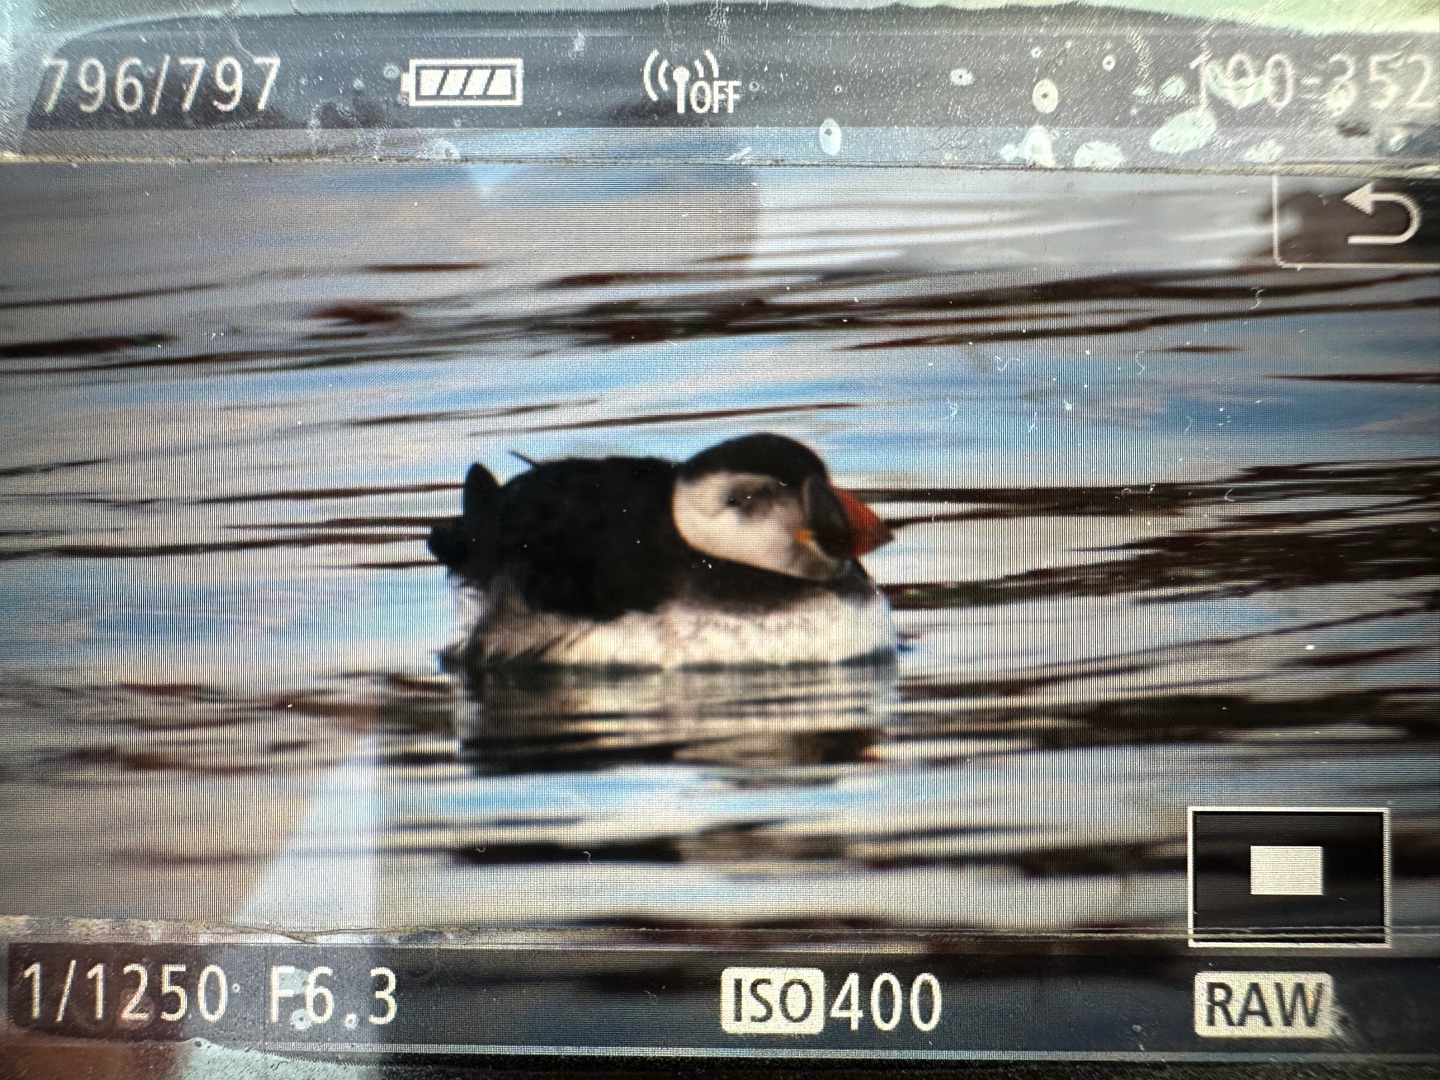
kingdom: Animalia
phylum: Chordata
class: Aves
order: Charadriiformes
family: Alcidae
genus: Fratercula
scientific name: Fratercula arctica
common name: Lunde
